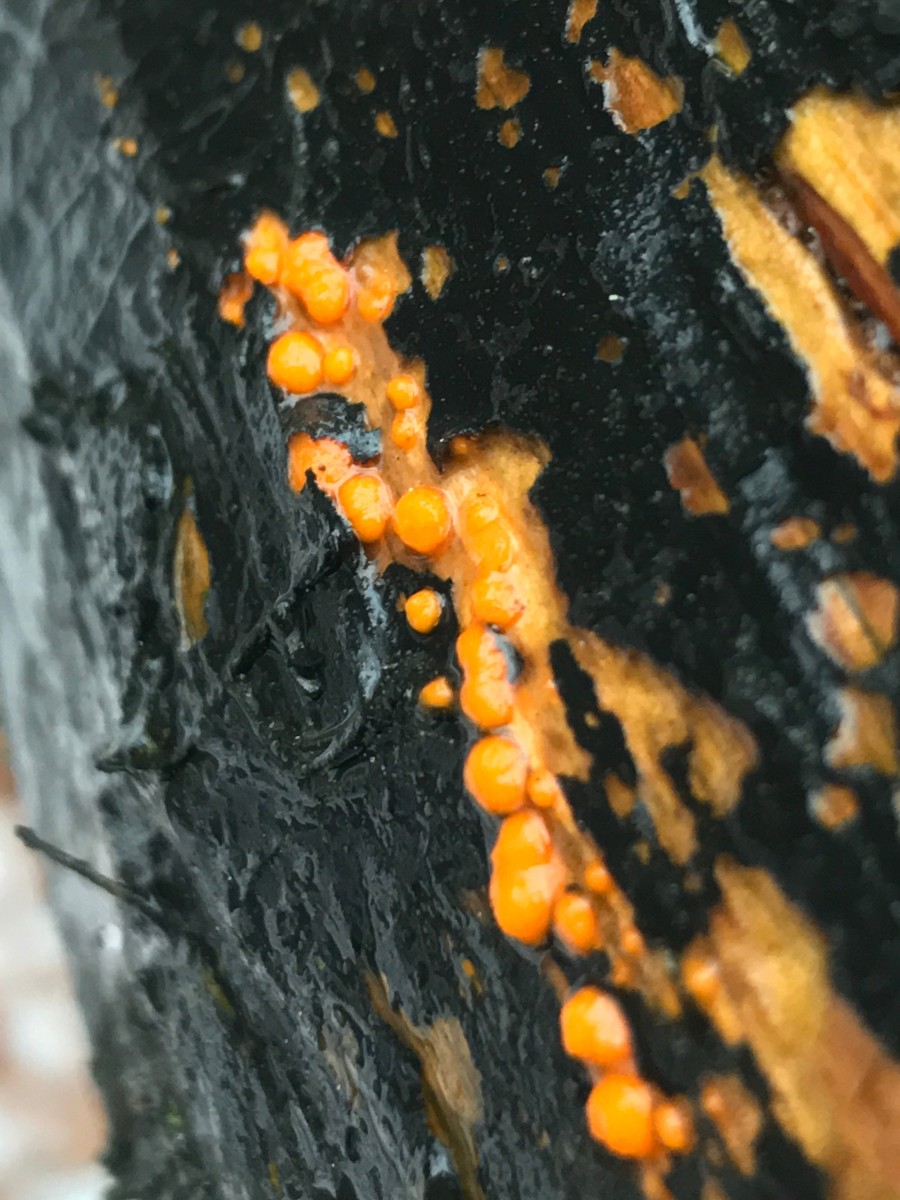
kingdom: Fungi
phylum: Basidiomycota
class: Dacrymycetes
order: Dacrymycetales
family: Dacrymycetaceae
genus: Dacrymyces
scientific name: Dacrymyces stillatus
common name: almindelig tåresvamp
